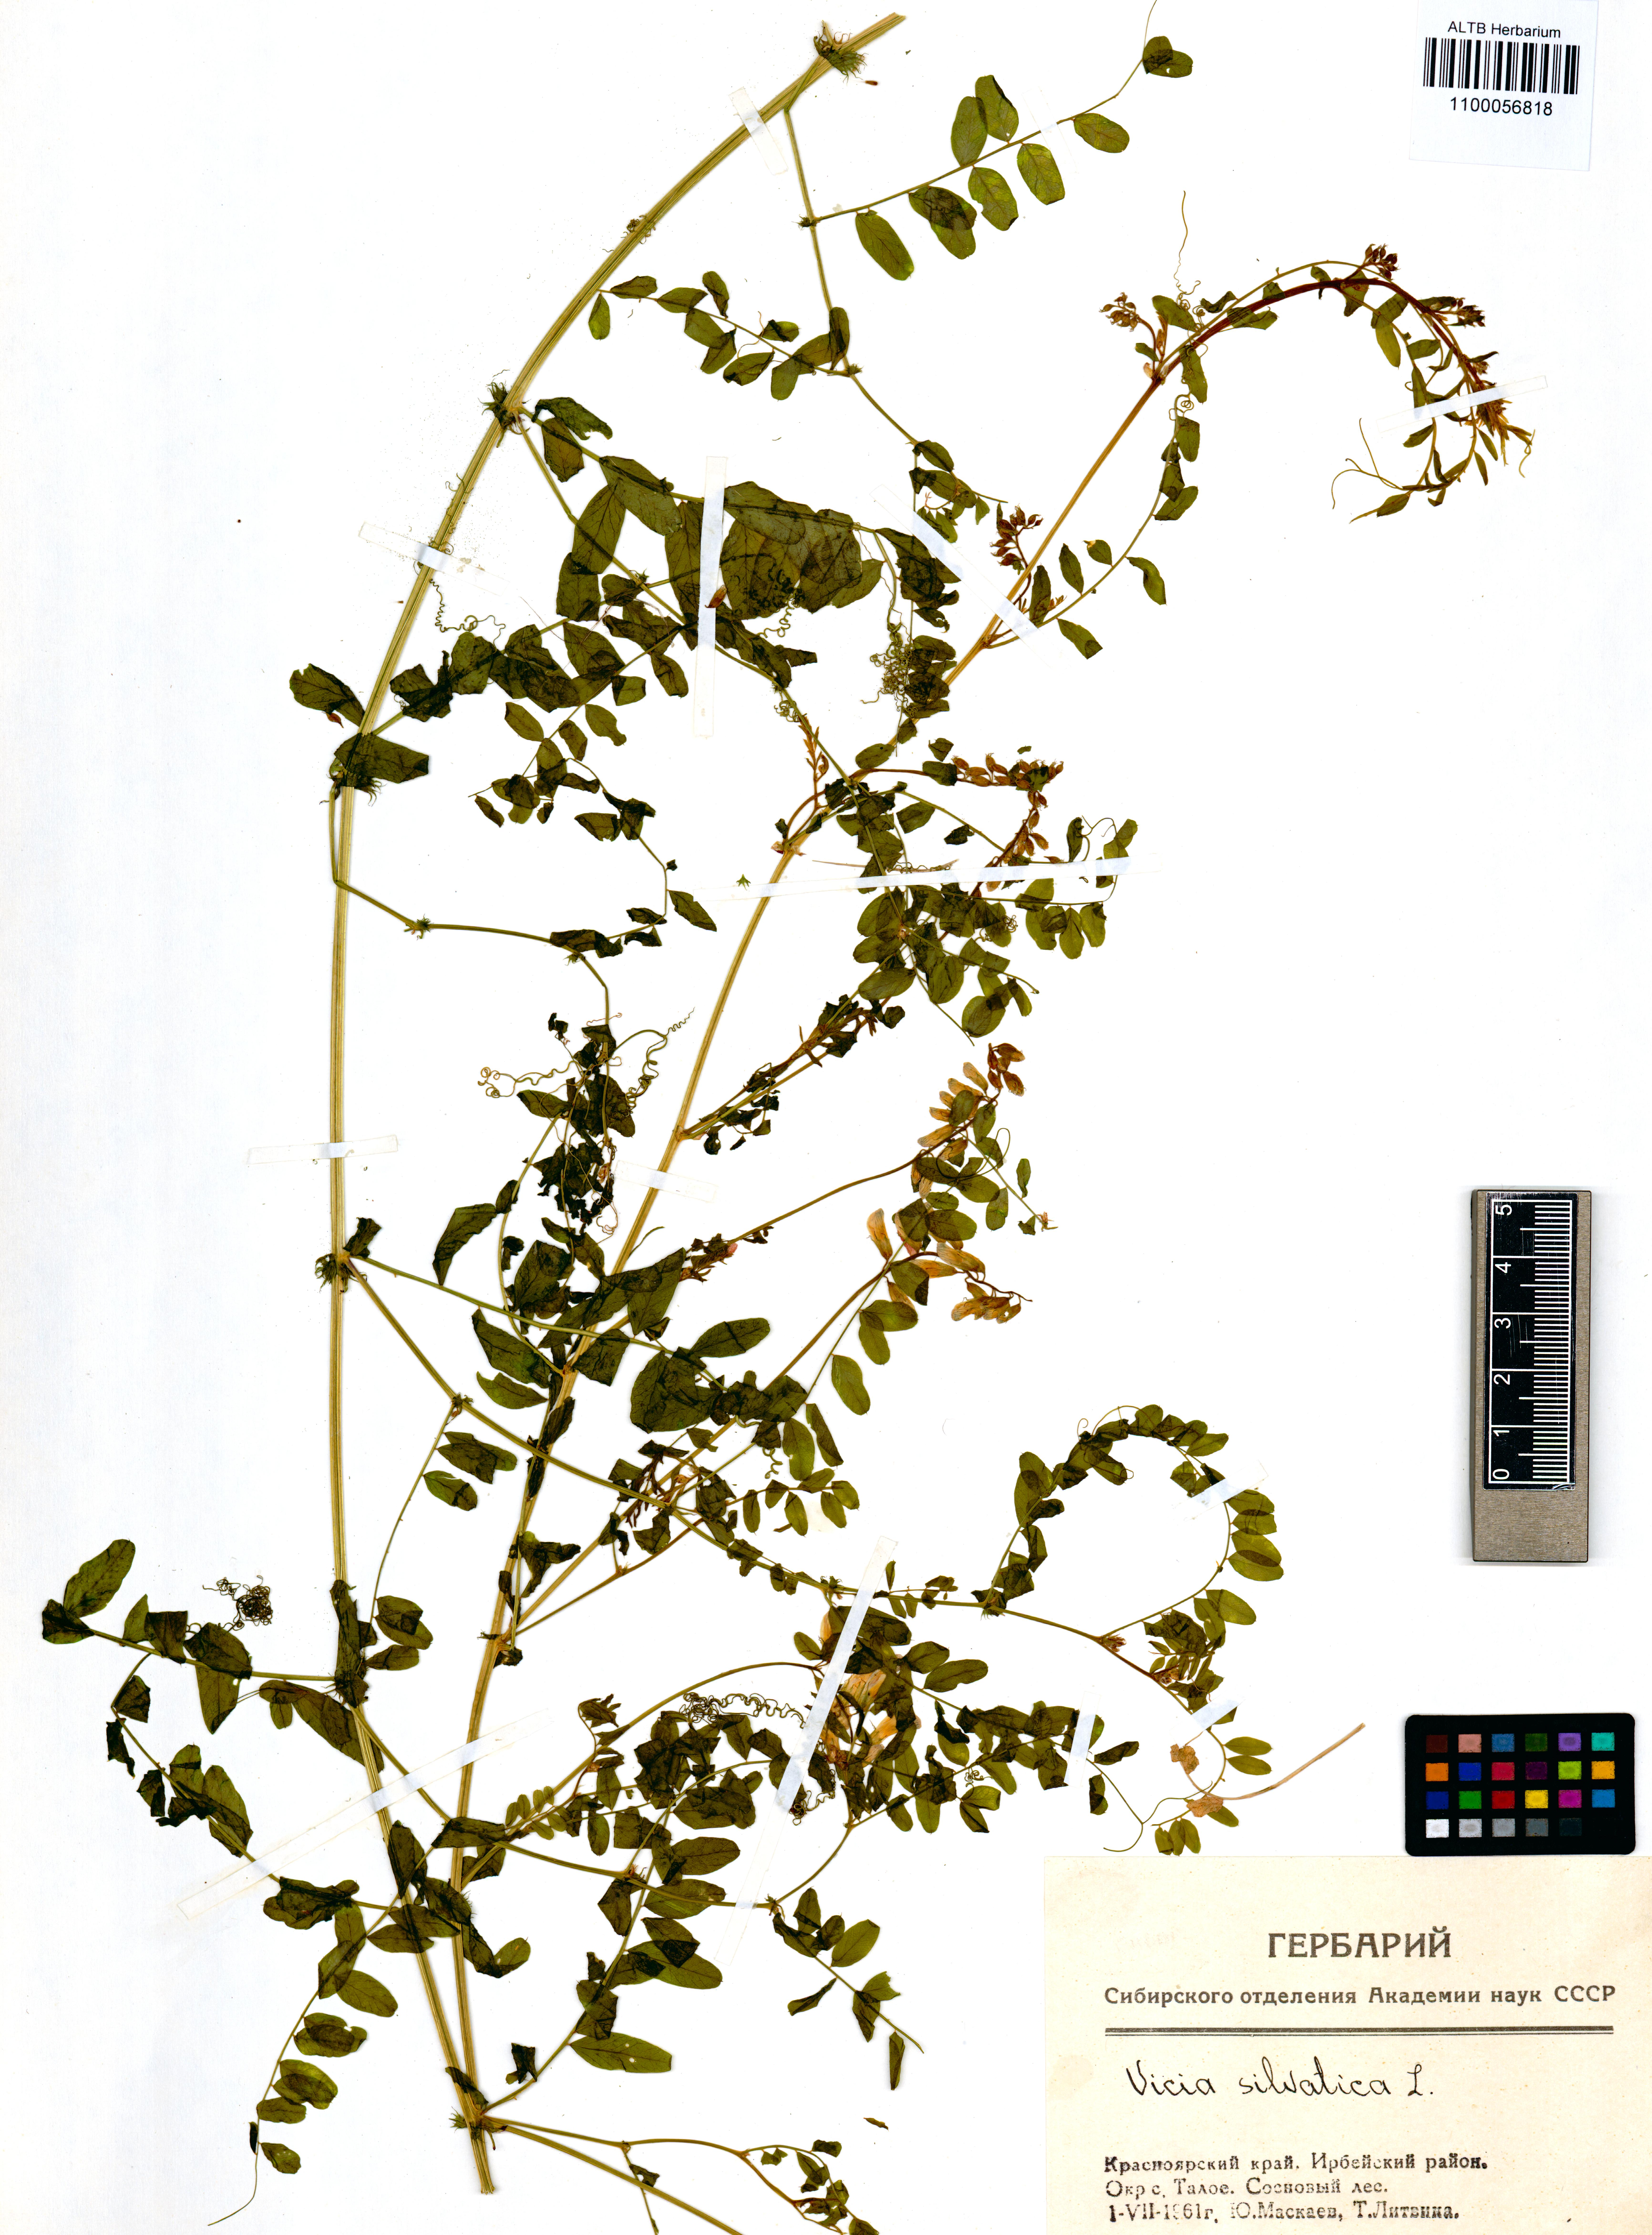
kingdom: Plantae
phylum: Tracheophyta
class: Magnoliopsida
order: Fabales
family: Fabaceae
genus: Vicia
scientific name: Vicia sylvatica
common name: Wood vetch
